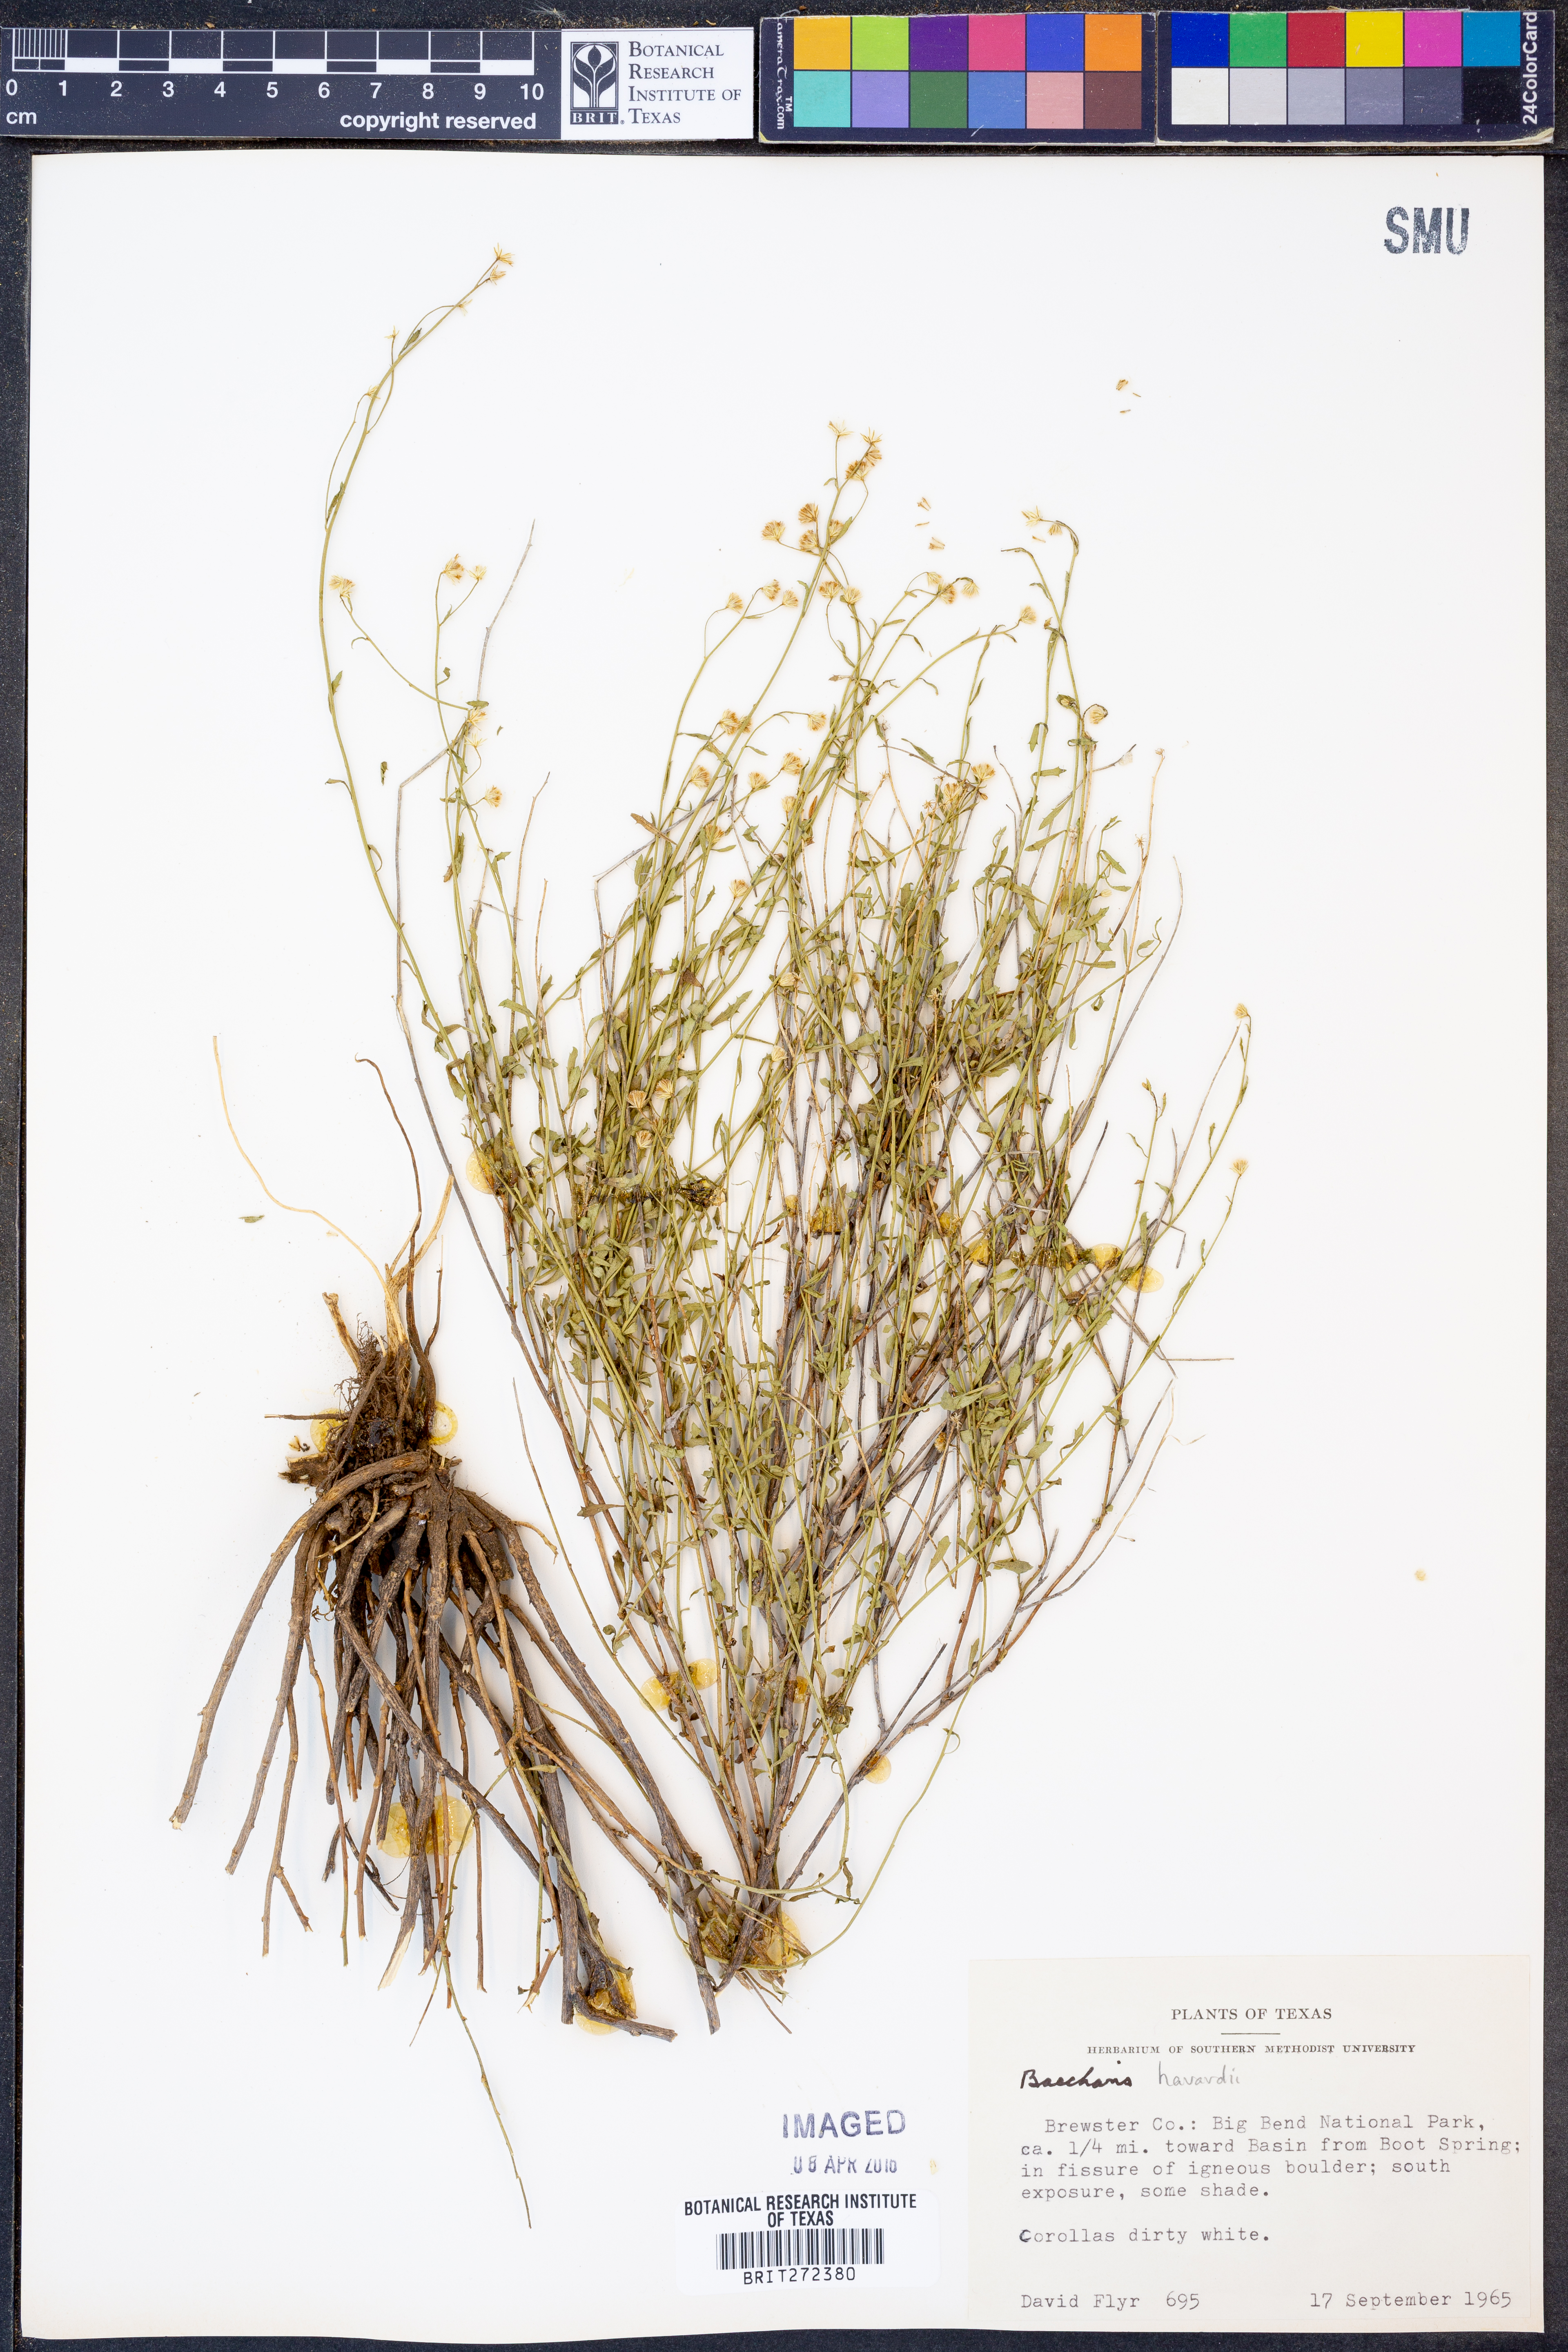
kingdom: Plantae
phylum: Tracheophyta
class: Magnoliopsida
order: Asterales
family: Asteraceae
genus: Baccharis
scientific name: Baccharis havardii
